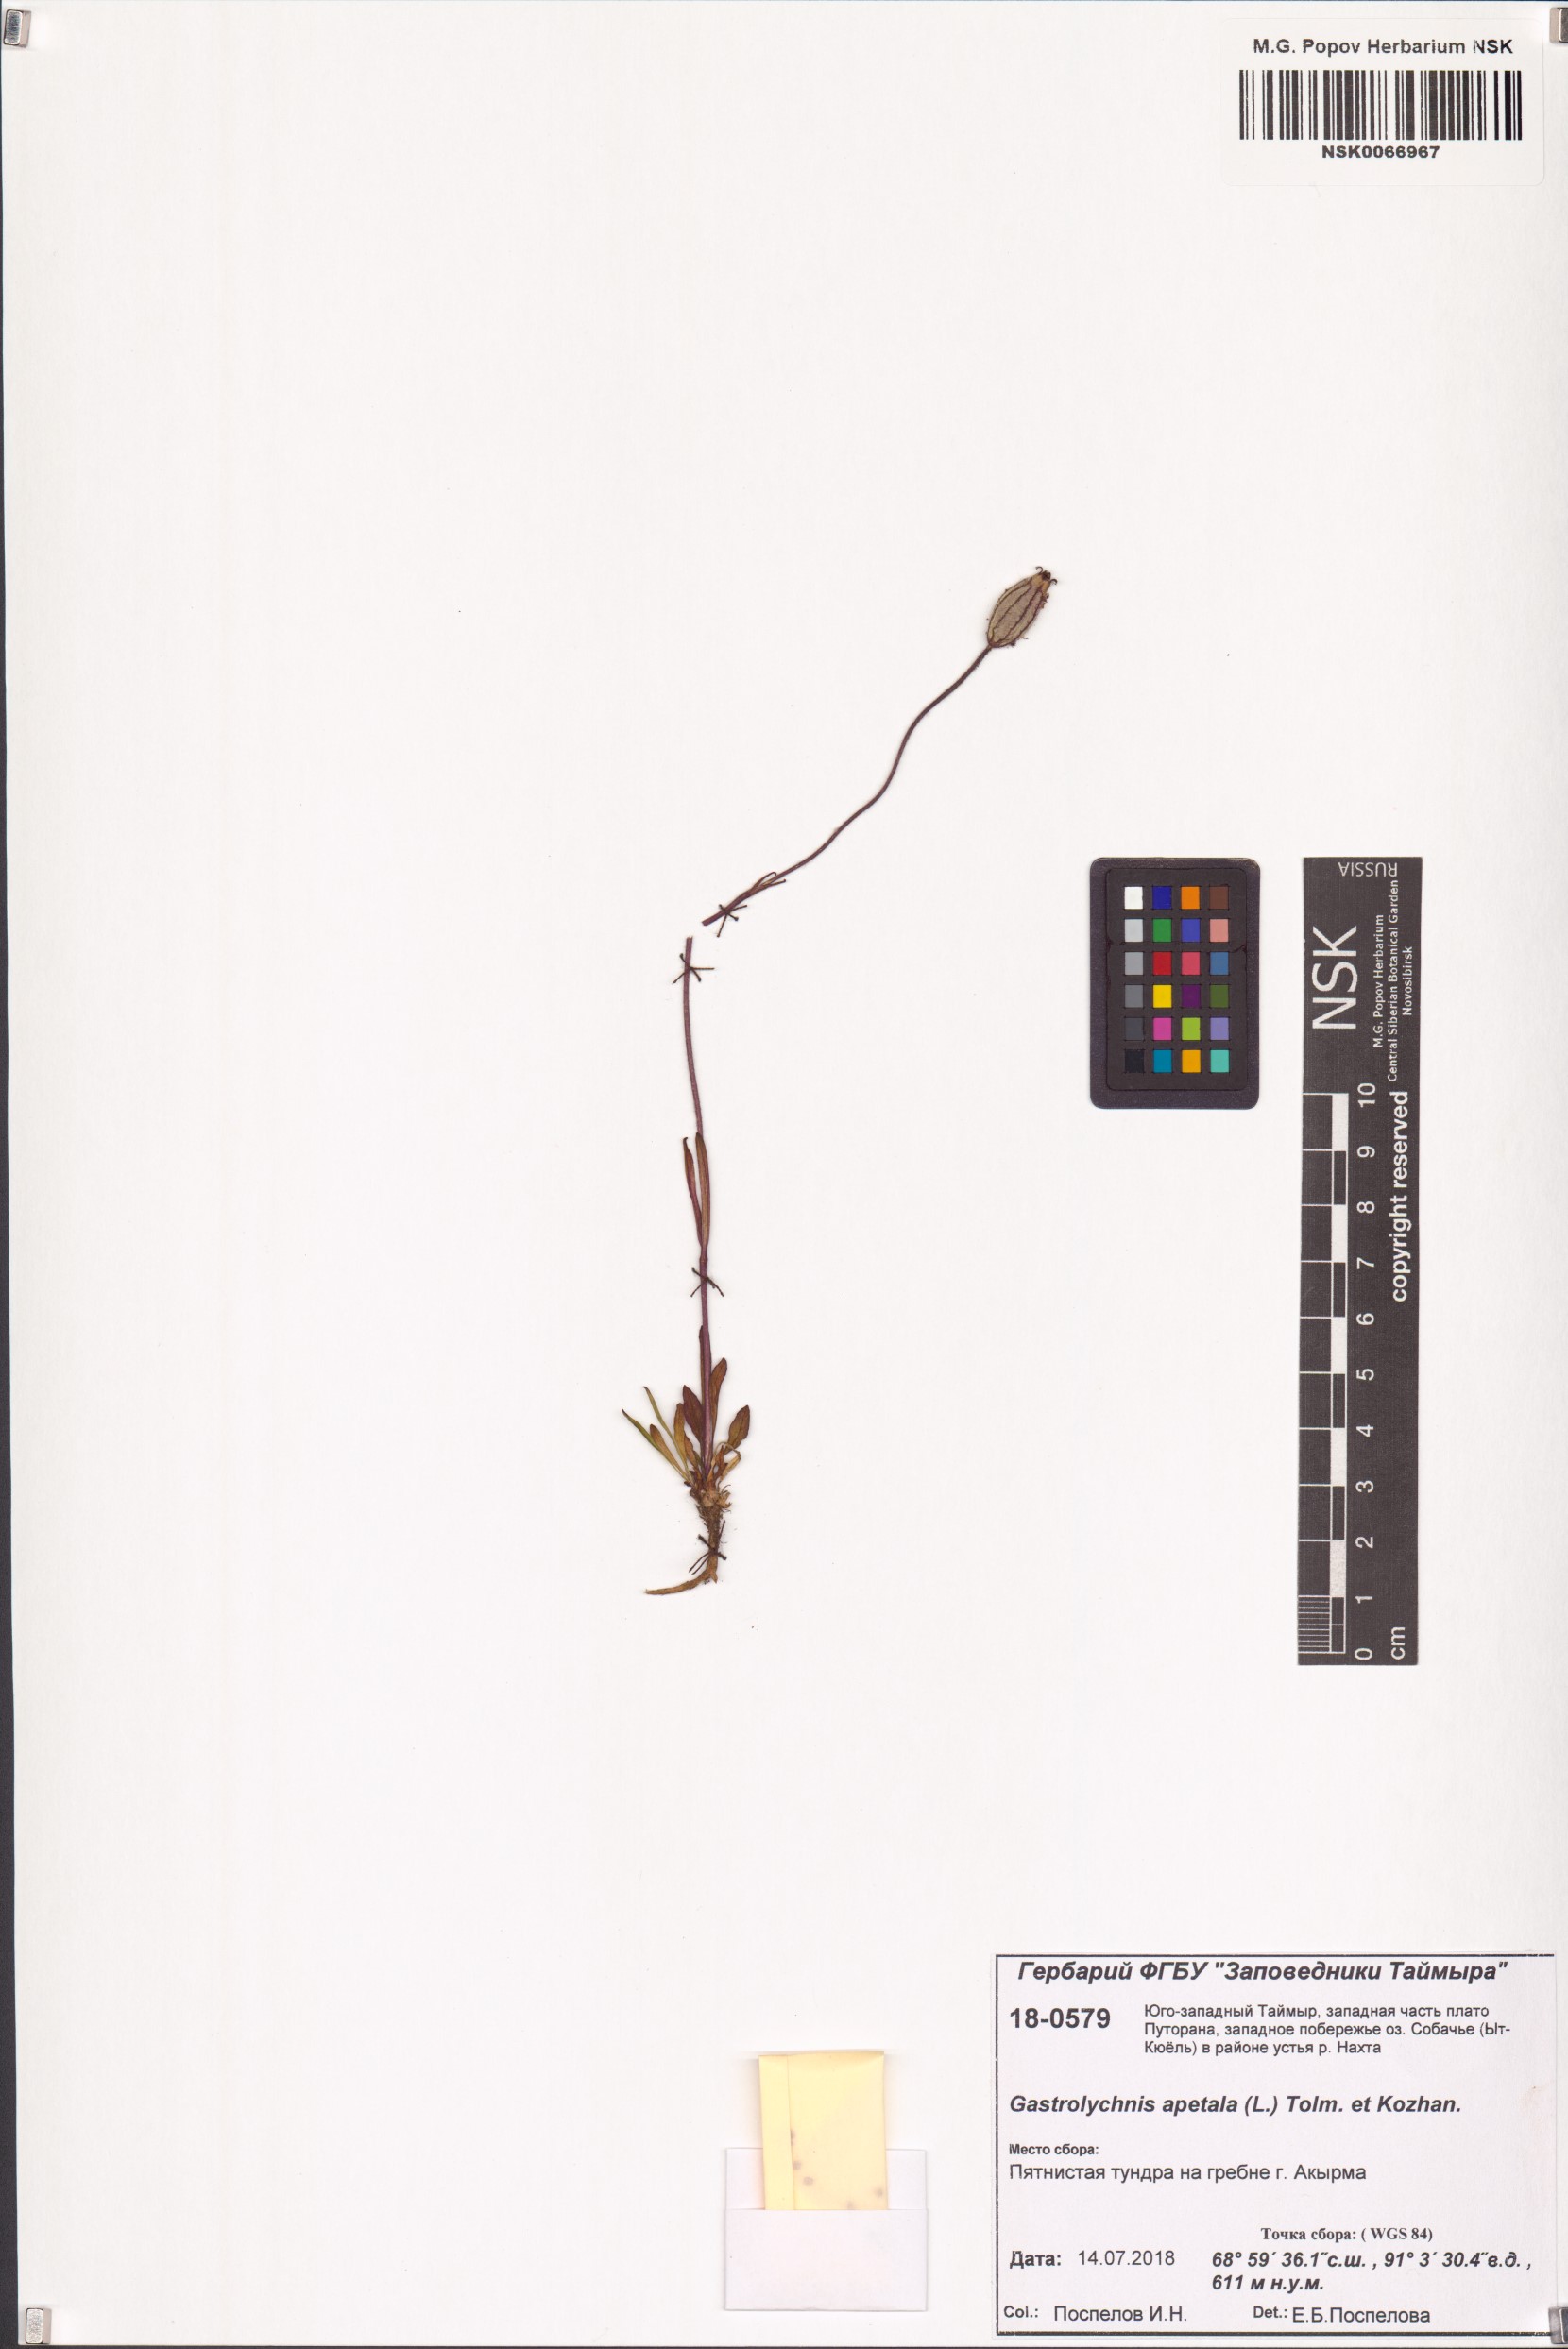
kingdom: Plantae
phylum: Tracheophyta
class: Magnoliopsida
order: Caryophyllales
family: Caryophyllaceae
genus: Silene
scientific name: Silene wahlbergella
